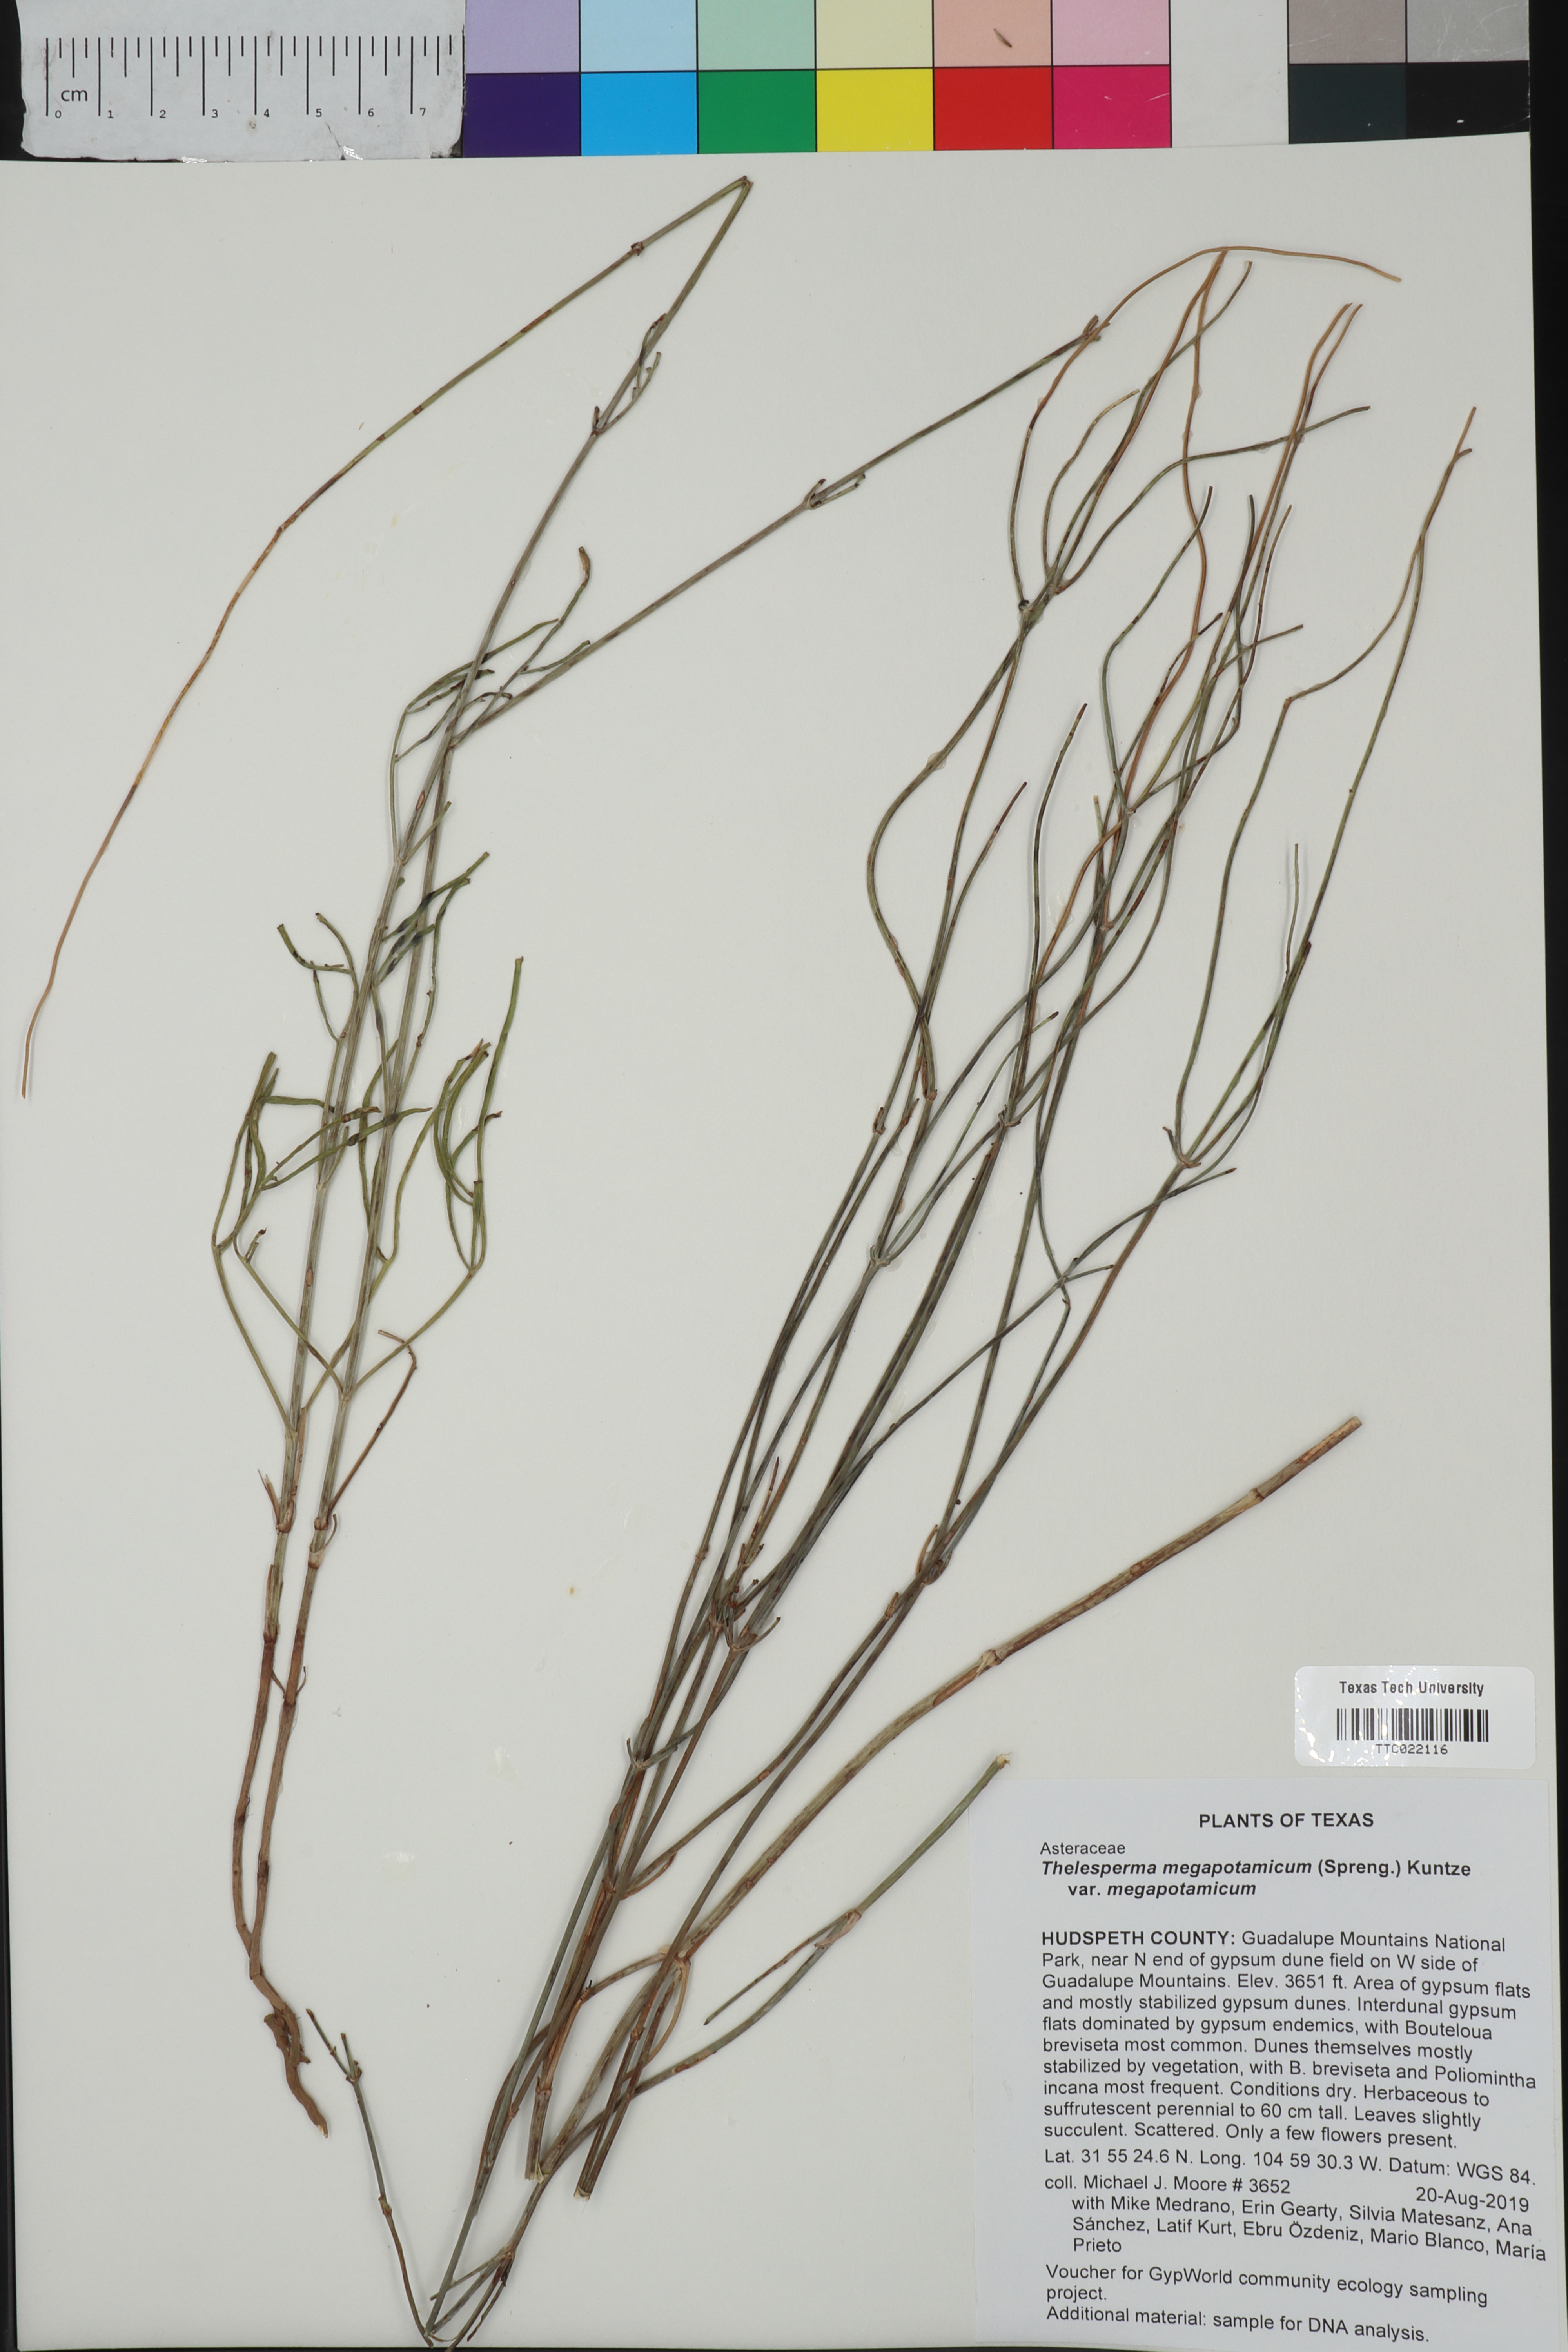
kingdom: Plantae
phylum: Tracheophyta
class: Magnoliopsida
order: Asterales
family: Asteraceae
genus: Thelesperma
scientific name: Thelesperma megapotamicum
